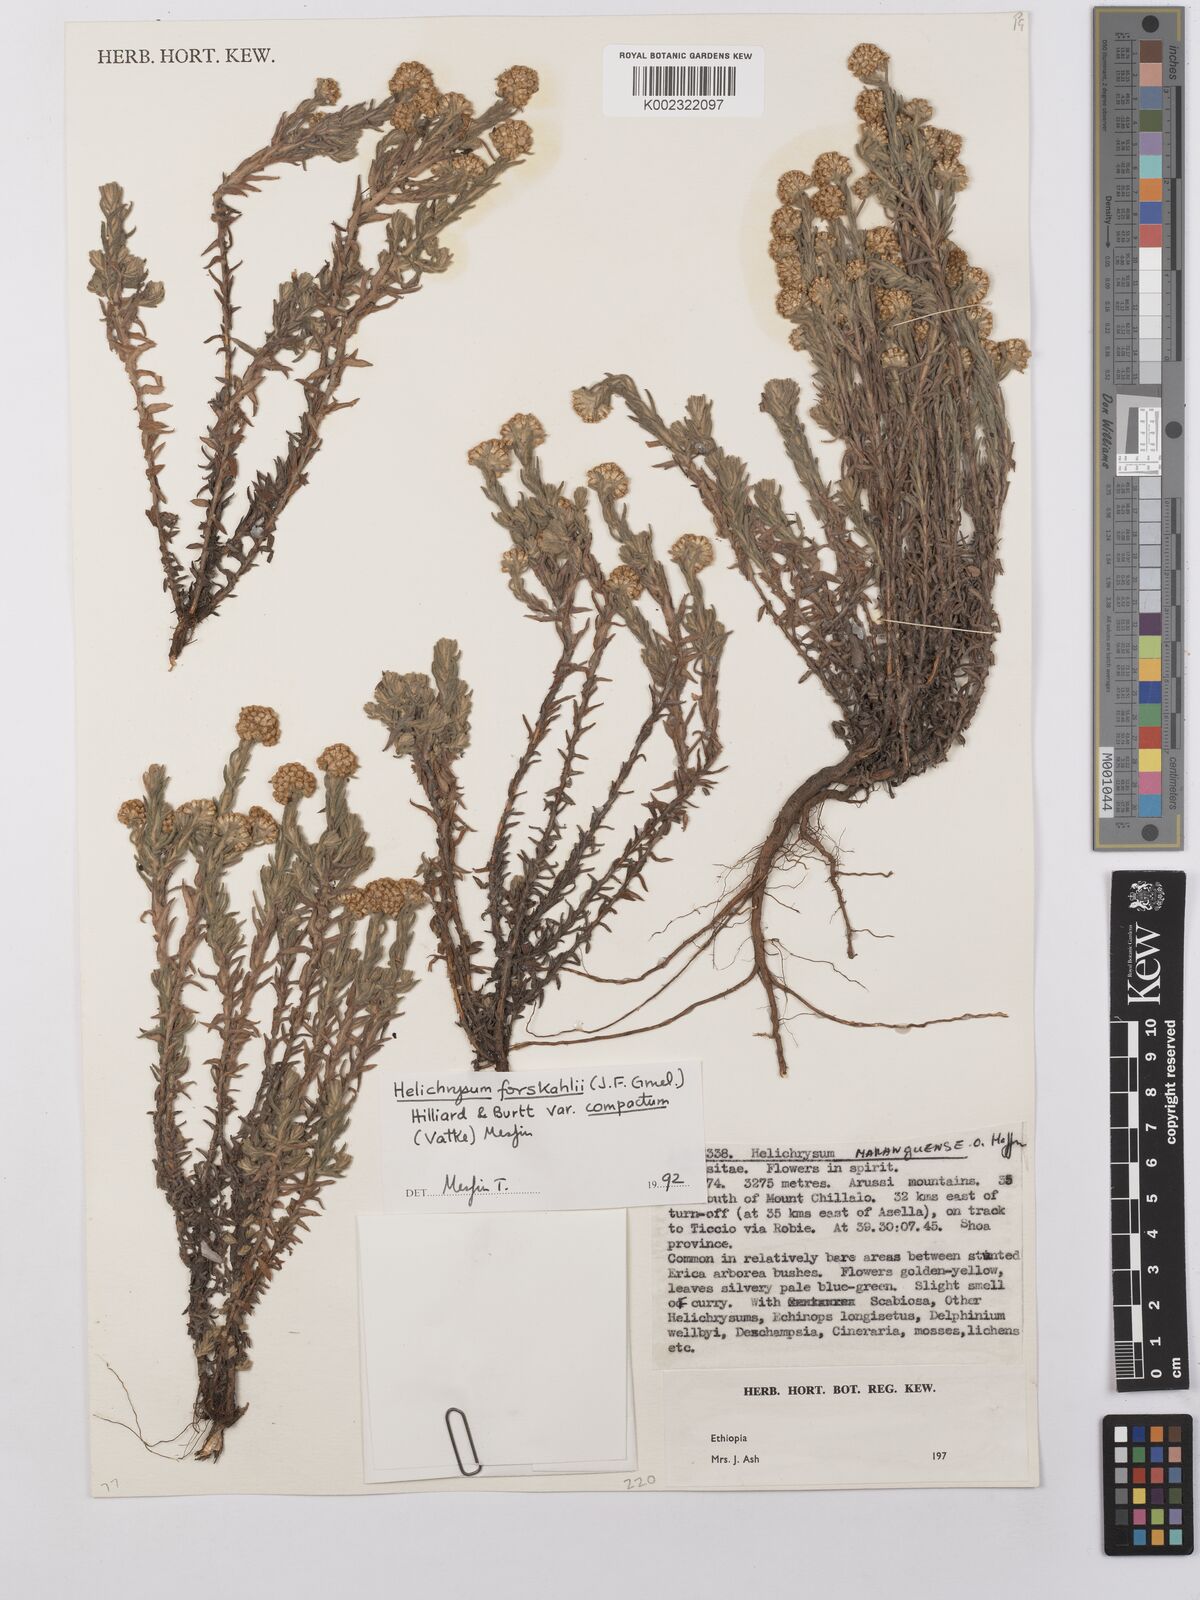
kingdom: Plantae
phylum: Tracheophyta
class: Magnoliopsida
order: Asterales
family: Asteraceae
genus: Helichrysum
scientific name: Helichrysum forskahlii
